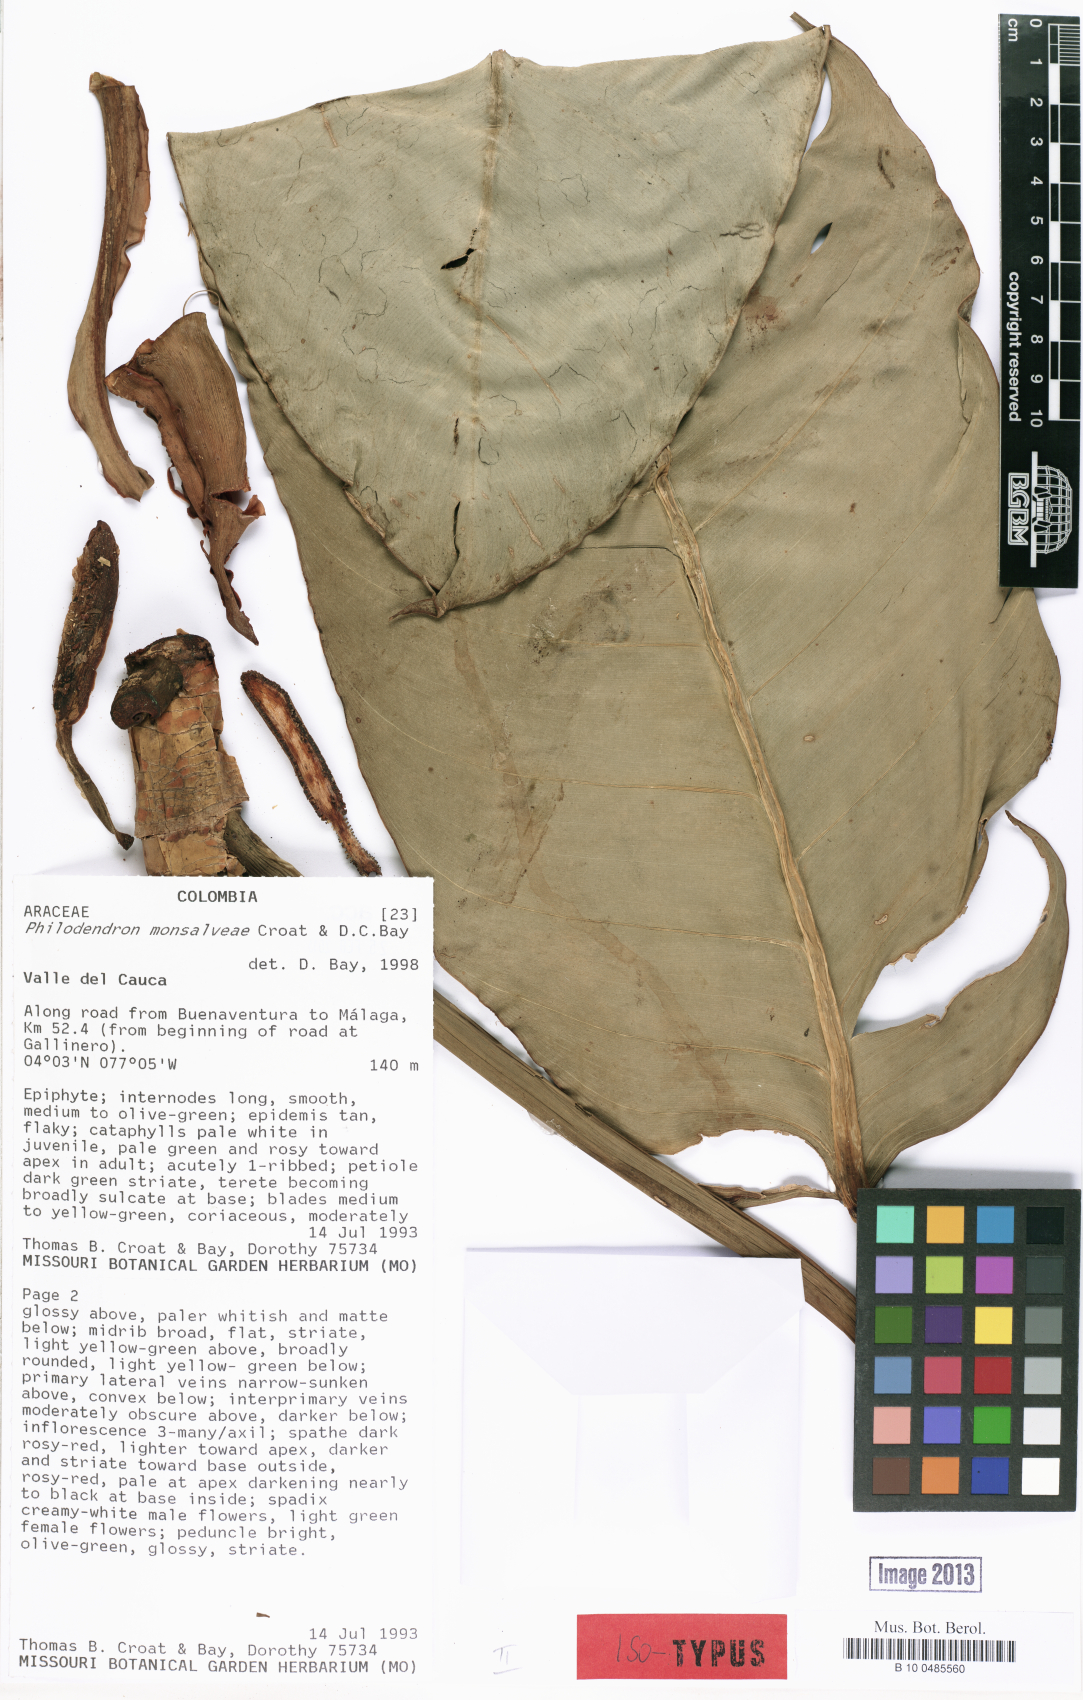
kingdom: Plantae
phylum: Tracheophyta
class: Liliopsida
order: Alismatales
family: Araceae
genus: Philodendron
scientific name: Philodendron monsalveae
